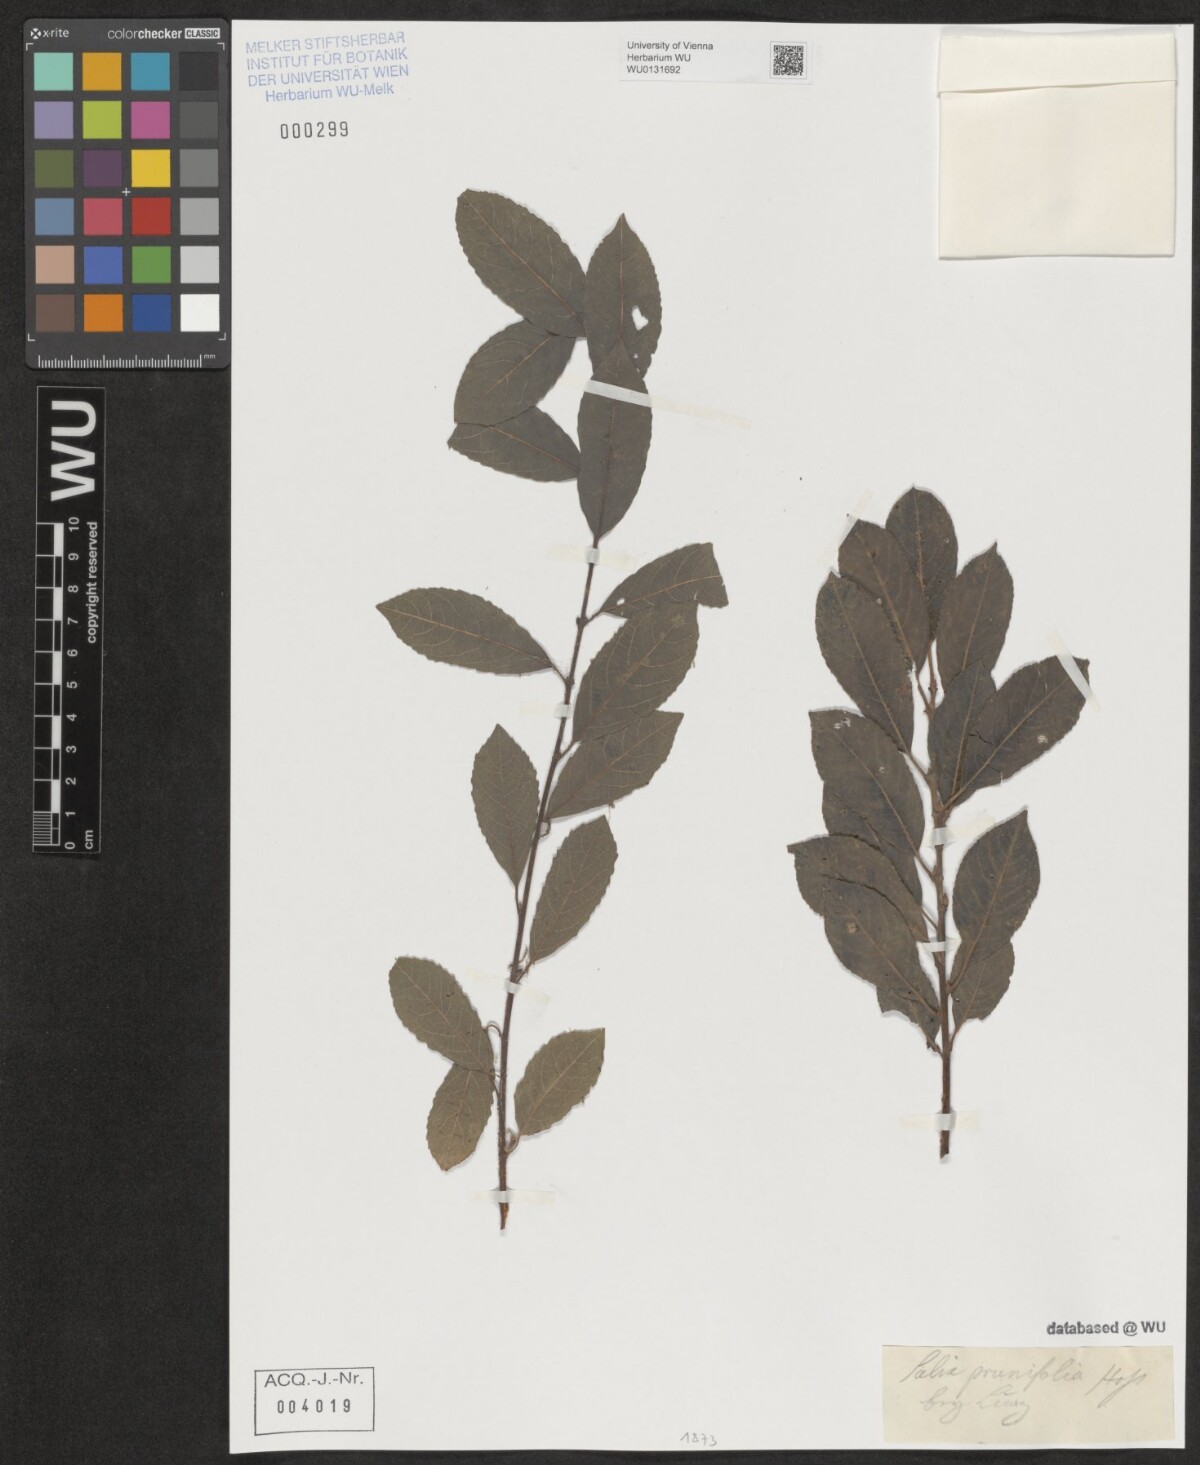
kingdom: Plantae
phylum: Tracheophyta
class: Magnoliopsida
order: Malpighiales
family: Salicaceae
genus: Salix
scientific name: Salix myrsinifolia
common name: Dark-leaved willow
